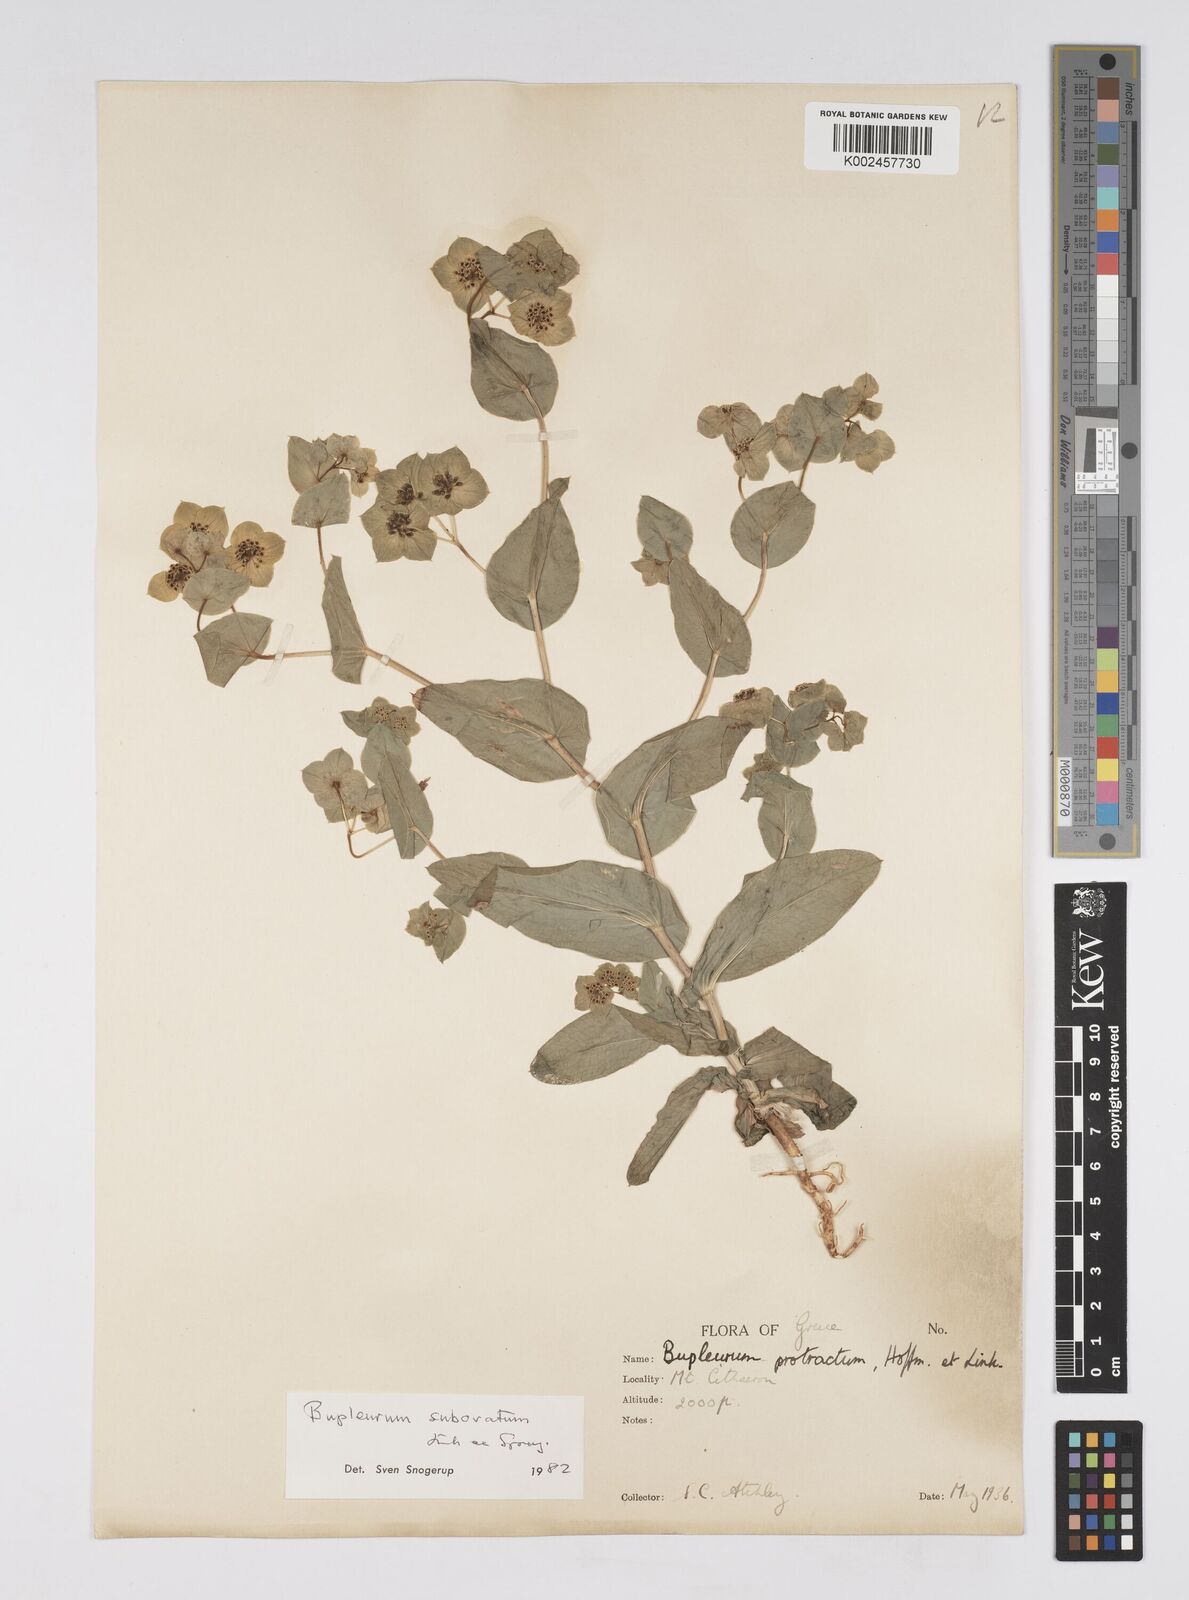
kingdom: Plantae
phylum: Tracheophyta
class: Magnoliopsida
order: Apiales
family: Apiaceae
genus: Bupleurum
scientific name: Bupleurum subovatum
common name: False thorow-wax
